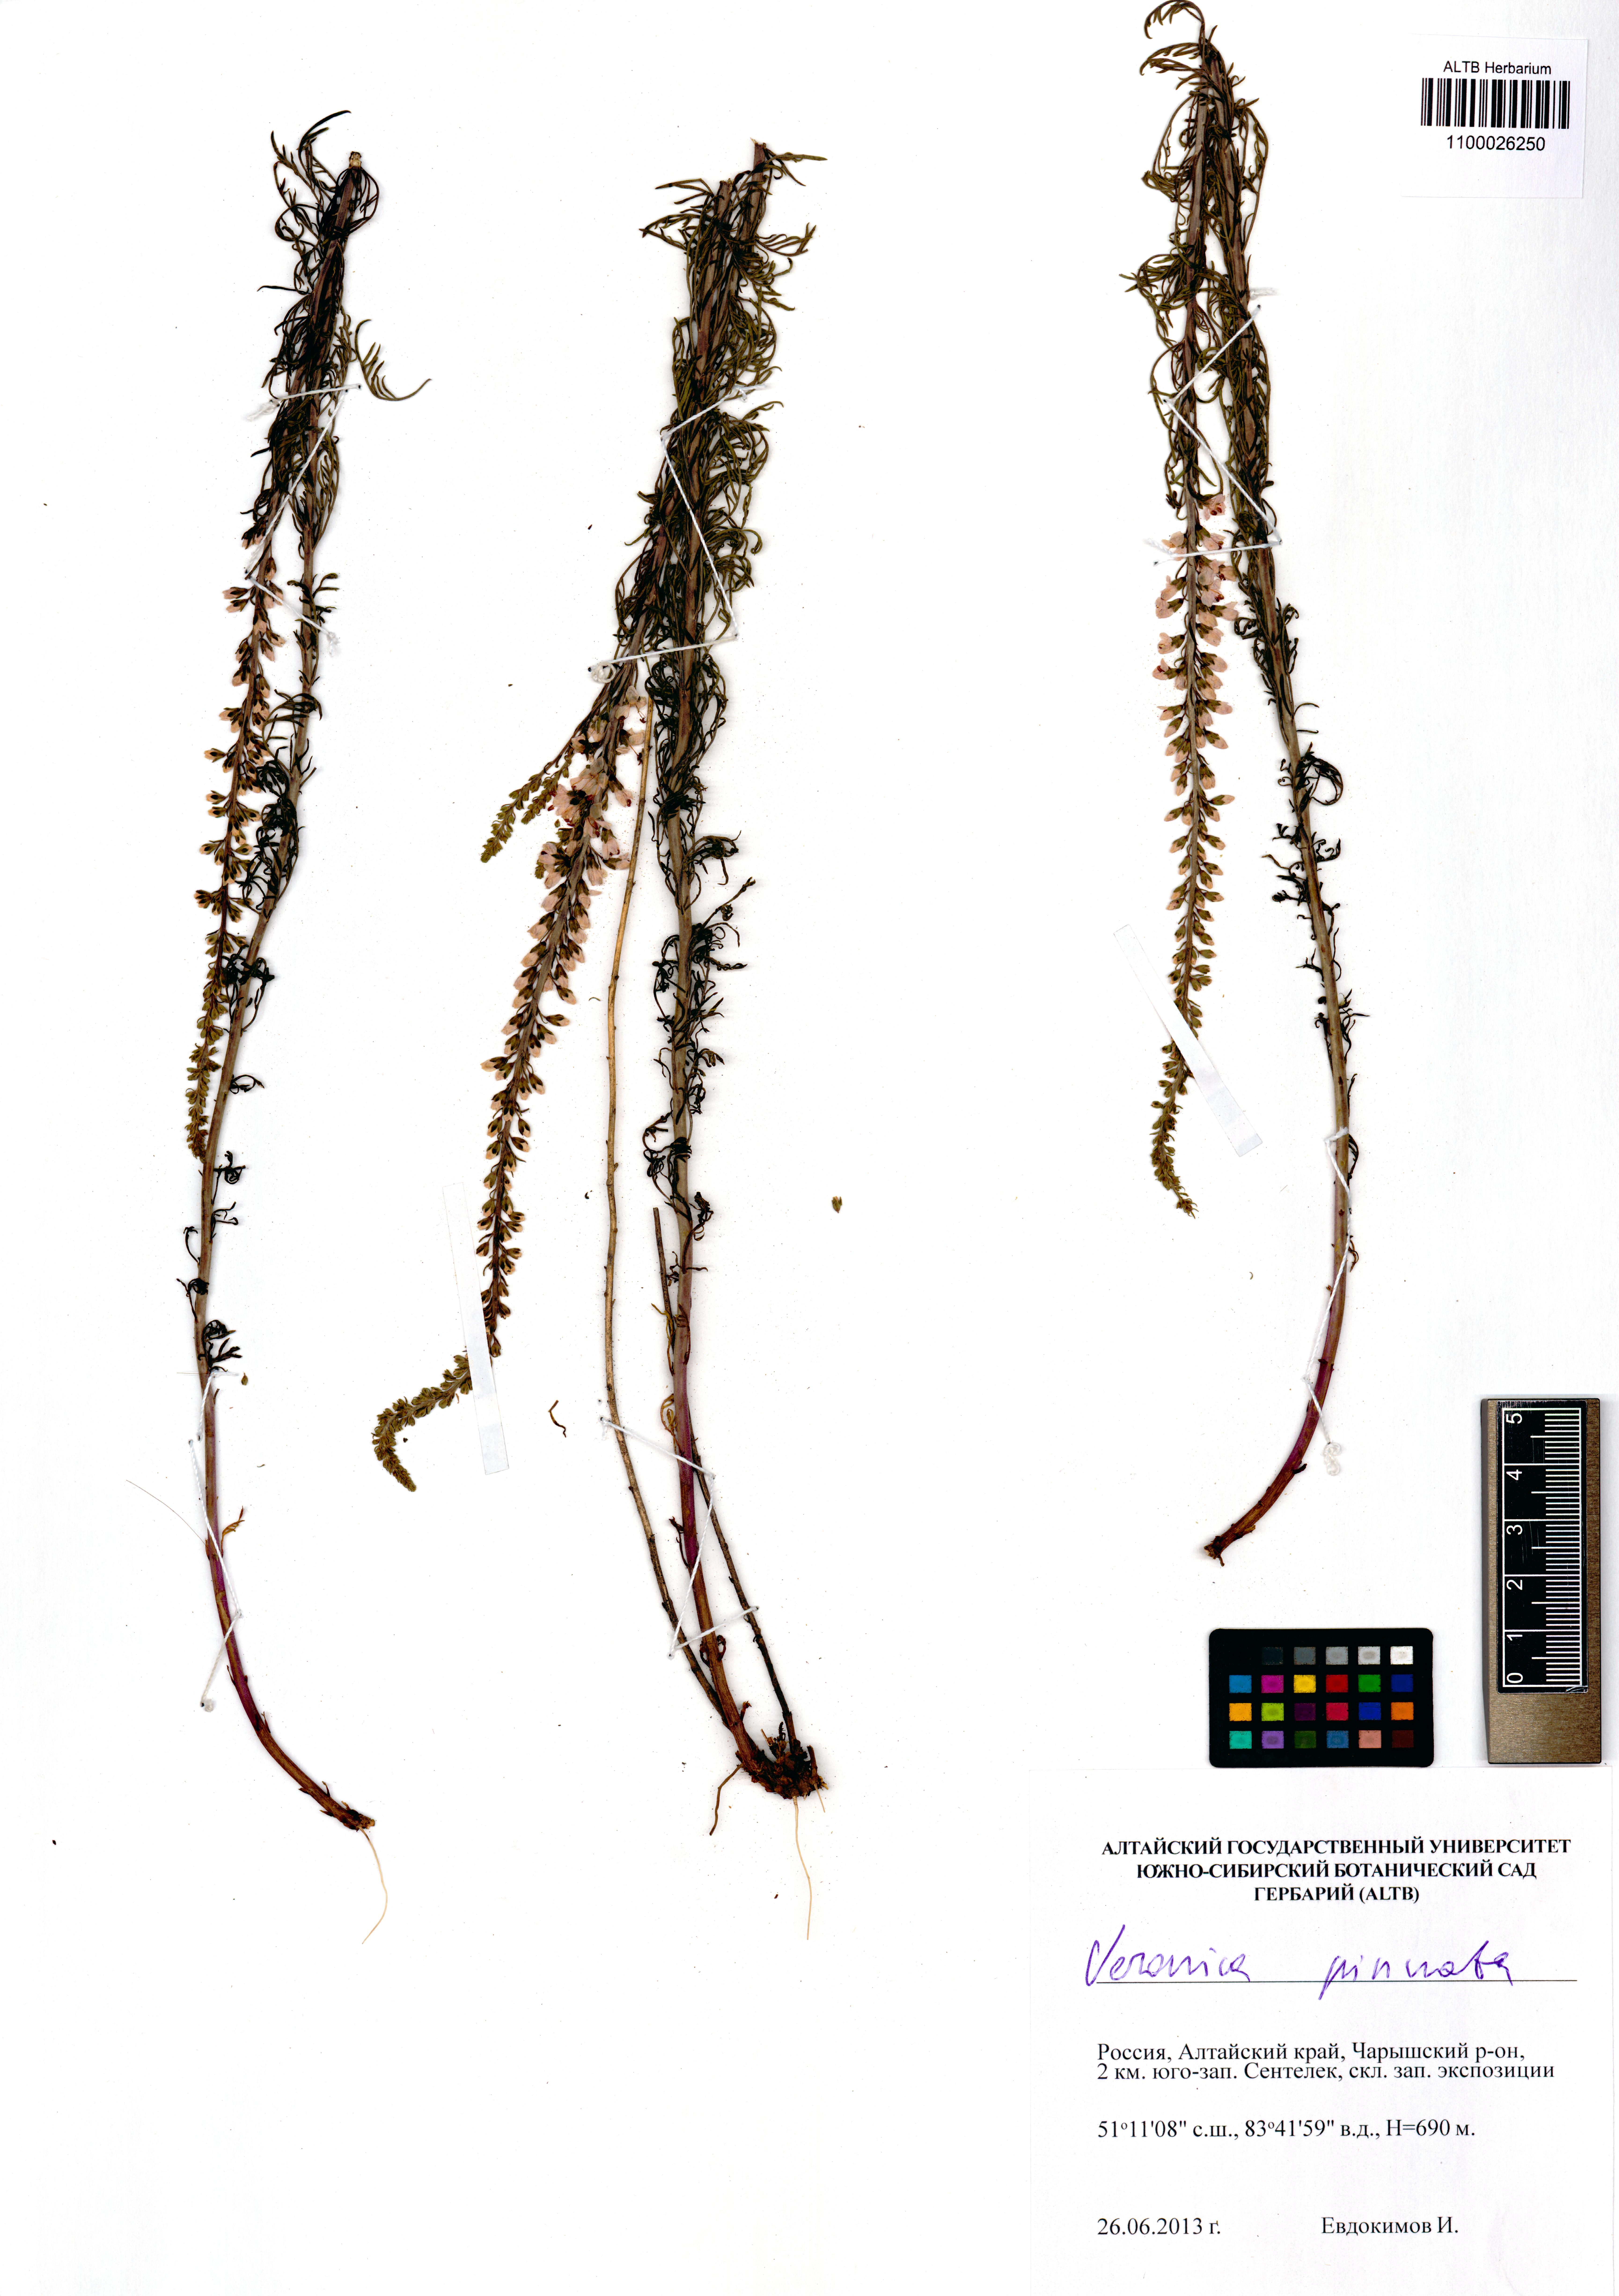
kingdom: Plantae
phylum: Tracheophyta
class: Magnoliopsida
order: Lamiales
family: Plantaginaceae
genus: Veronica
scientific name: Veronica pinnata
